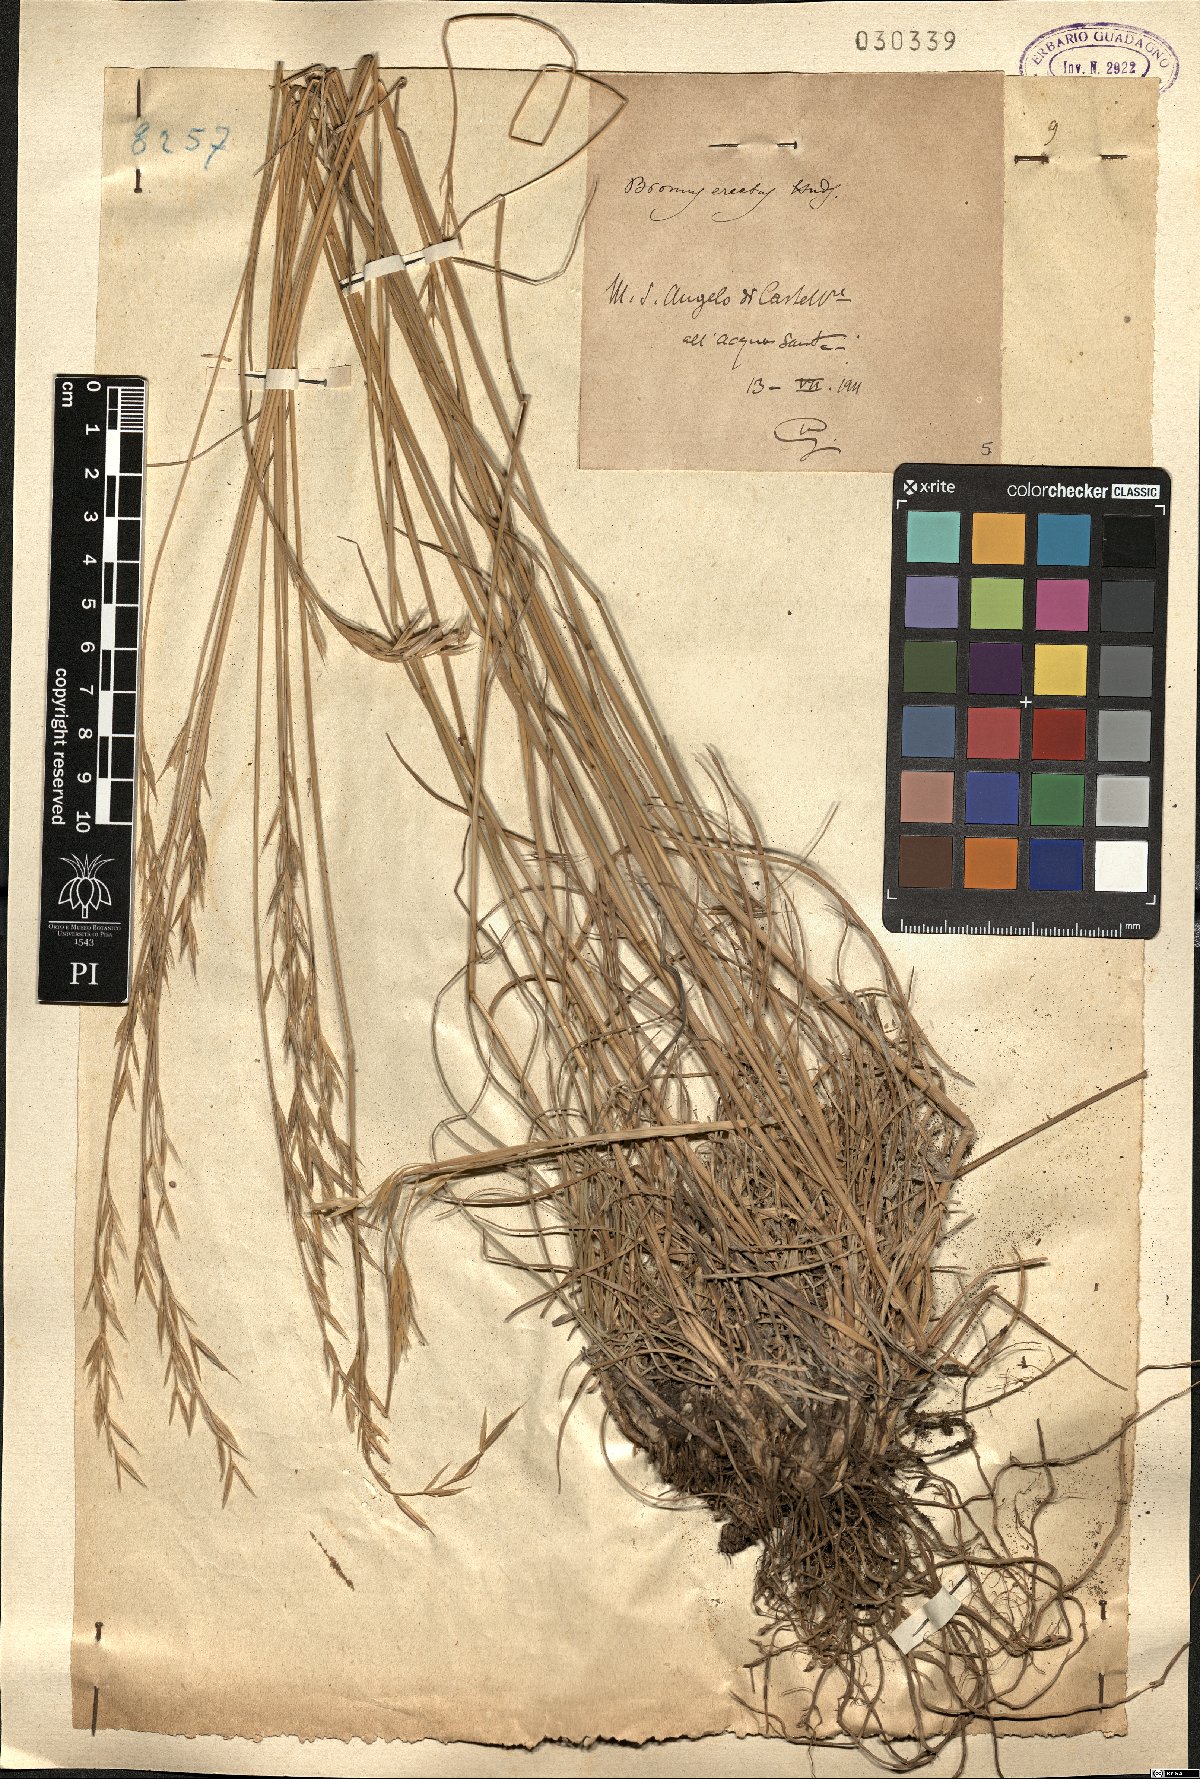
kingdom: Plantae
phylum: Tracheophyta
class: Liliopsida
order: Poales
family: Poaceae
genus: Bromus
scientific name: Bromus erectus
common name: Erect brome
